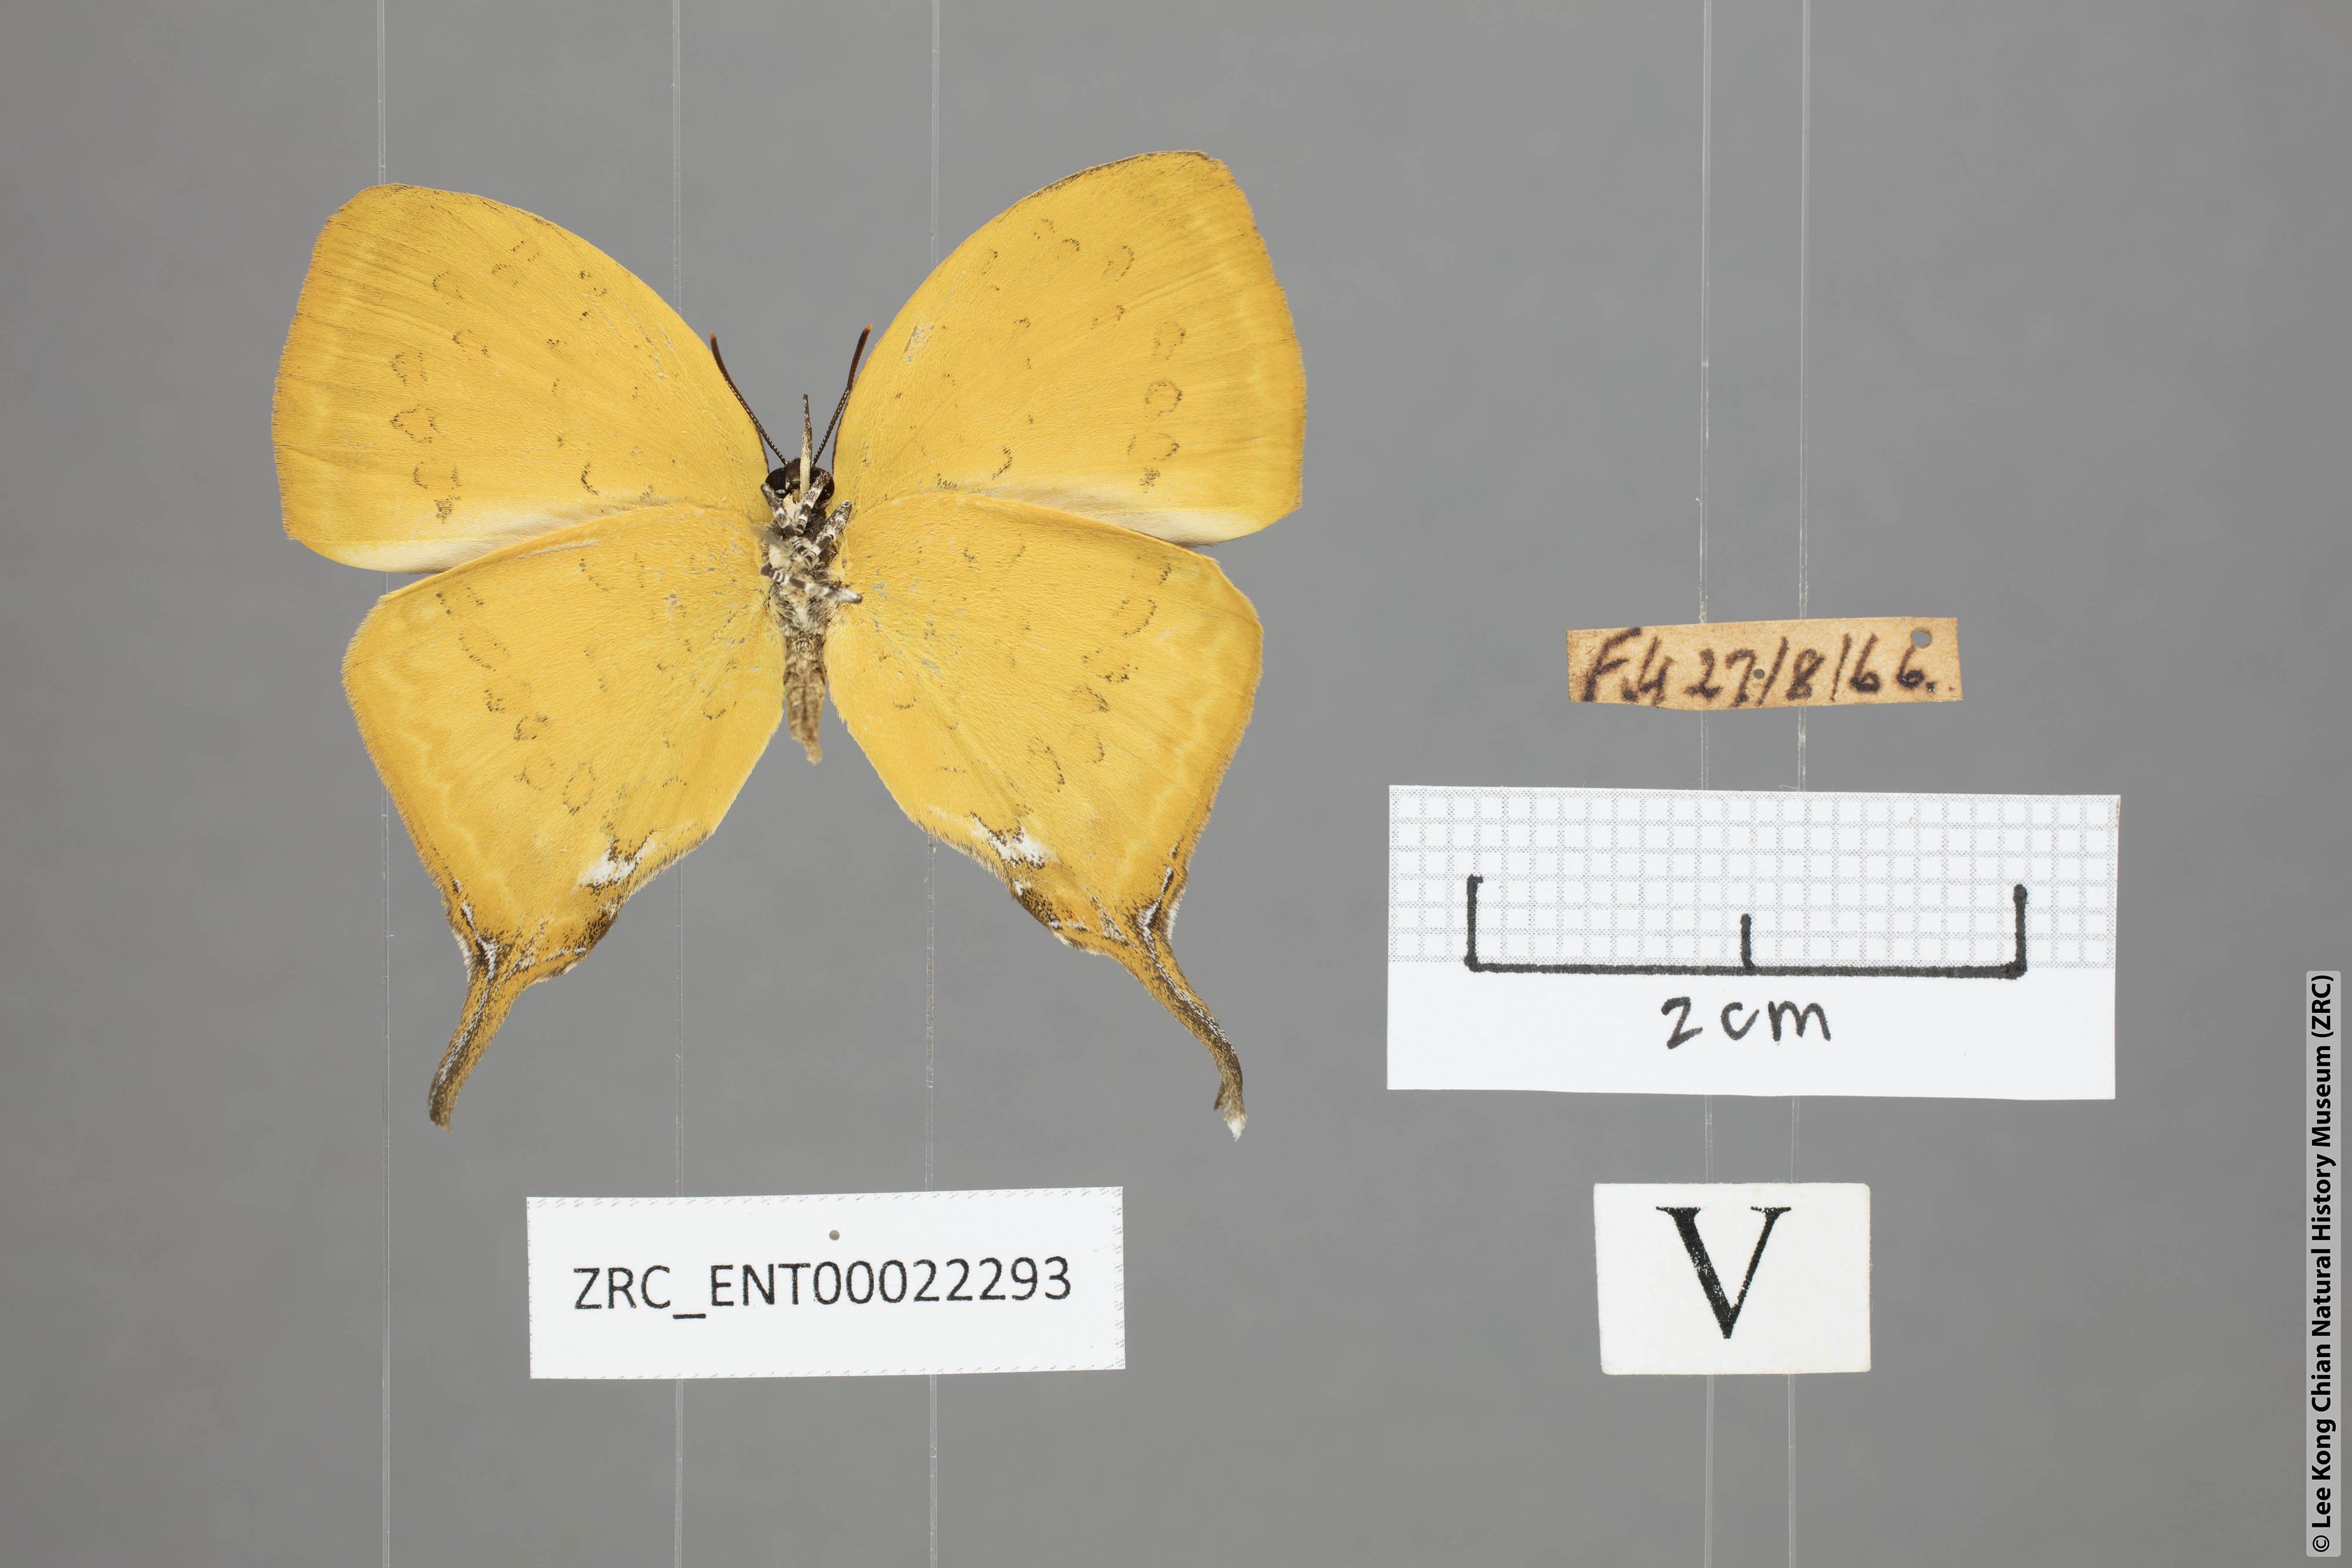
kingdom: Animalia
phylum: Arthropoda
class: Insecta
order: Lepidoptera
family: Lycaenidae
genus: Yasoda
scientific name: Yasoda pita
